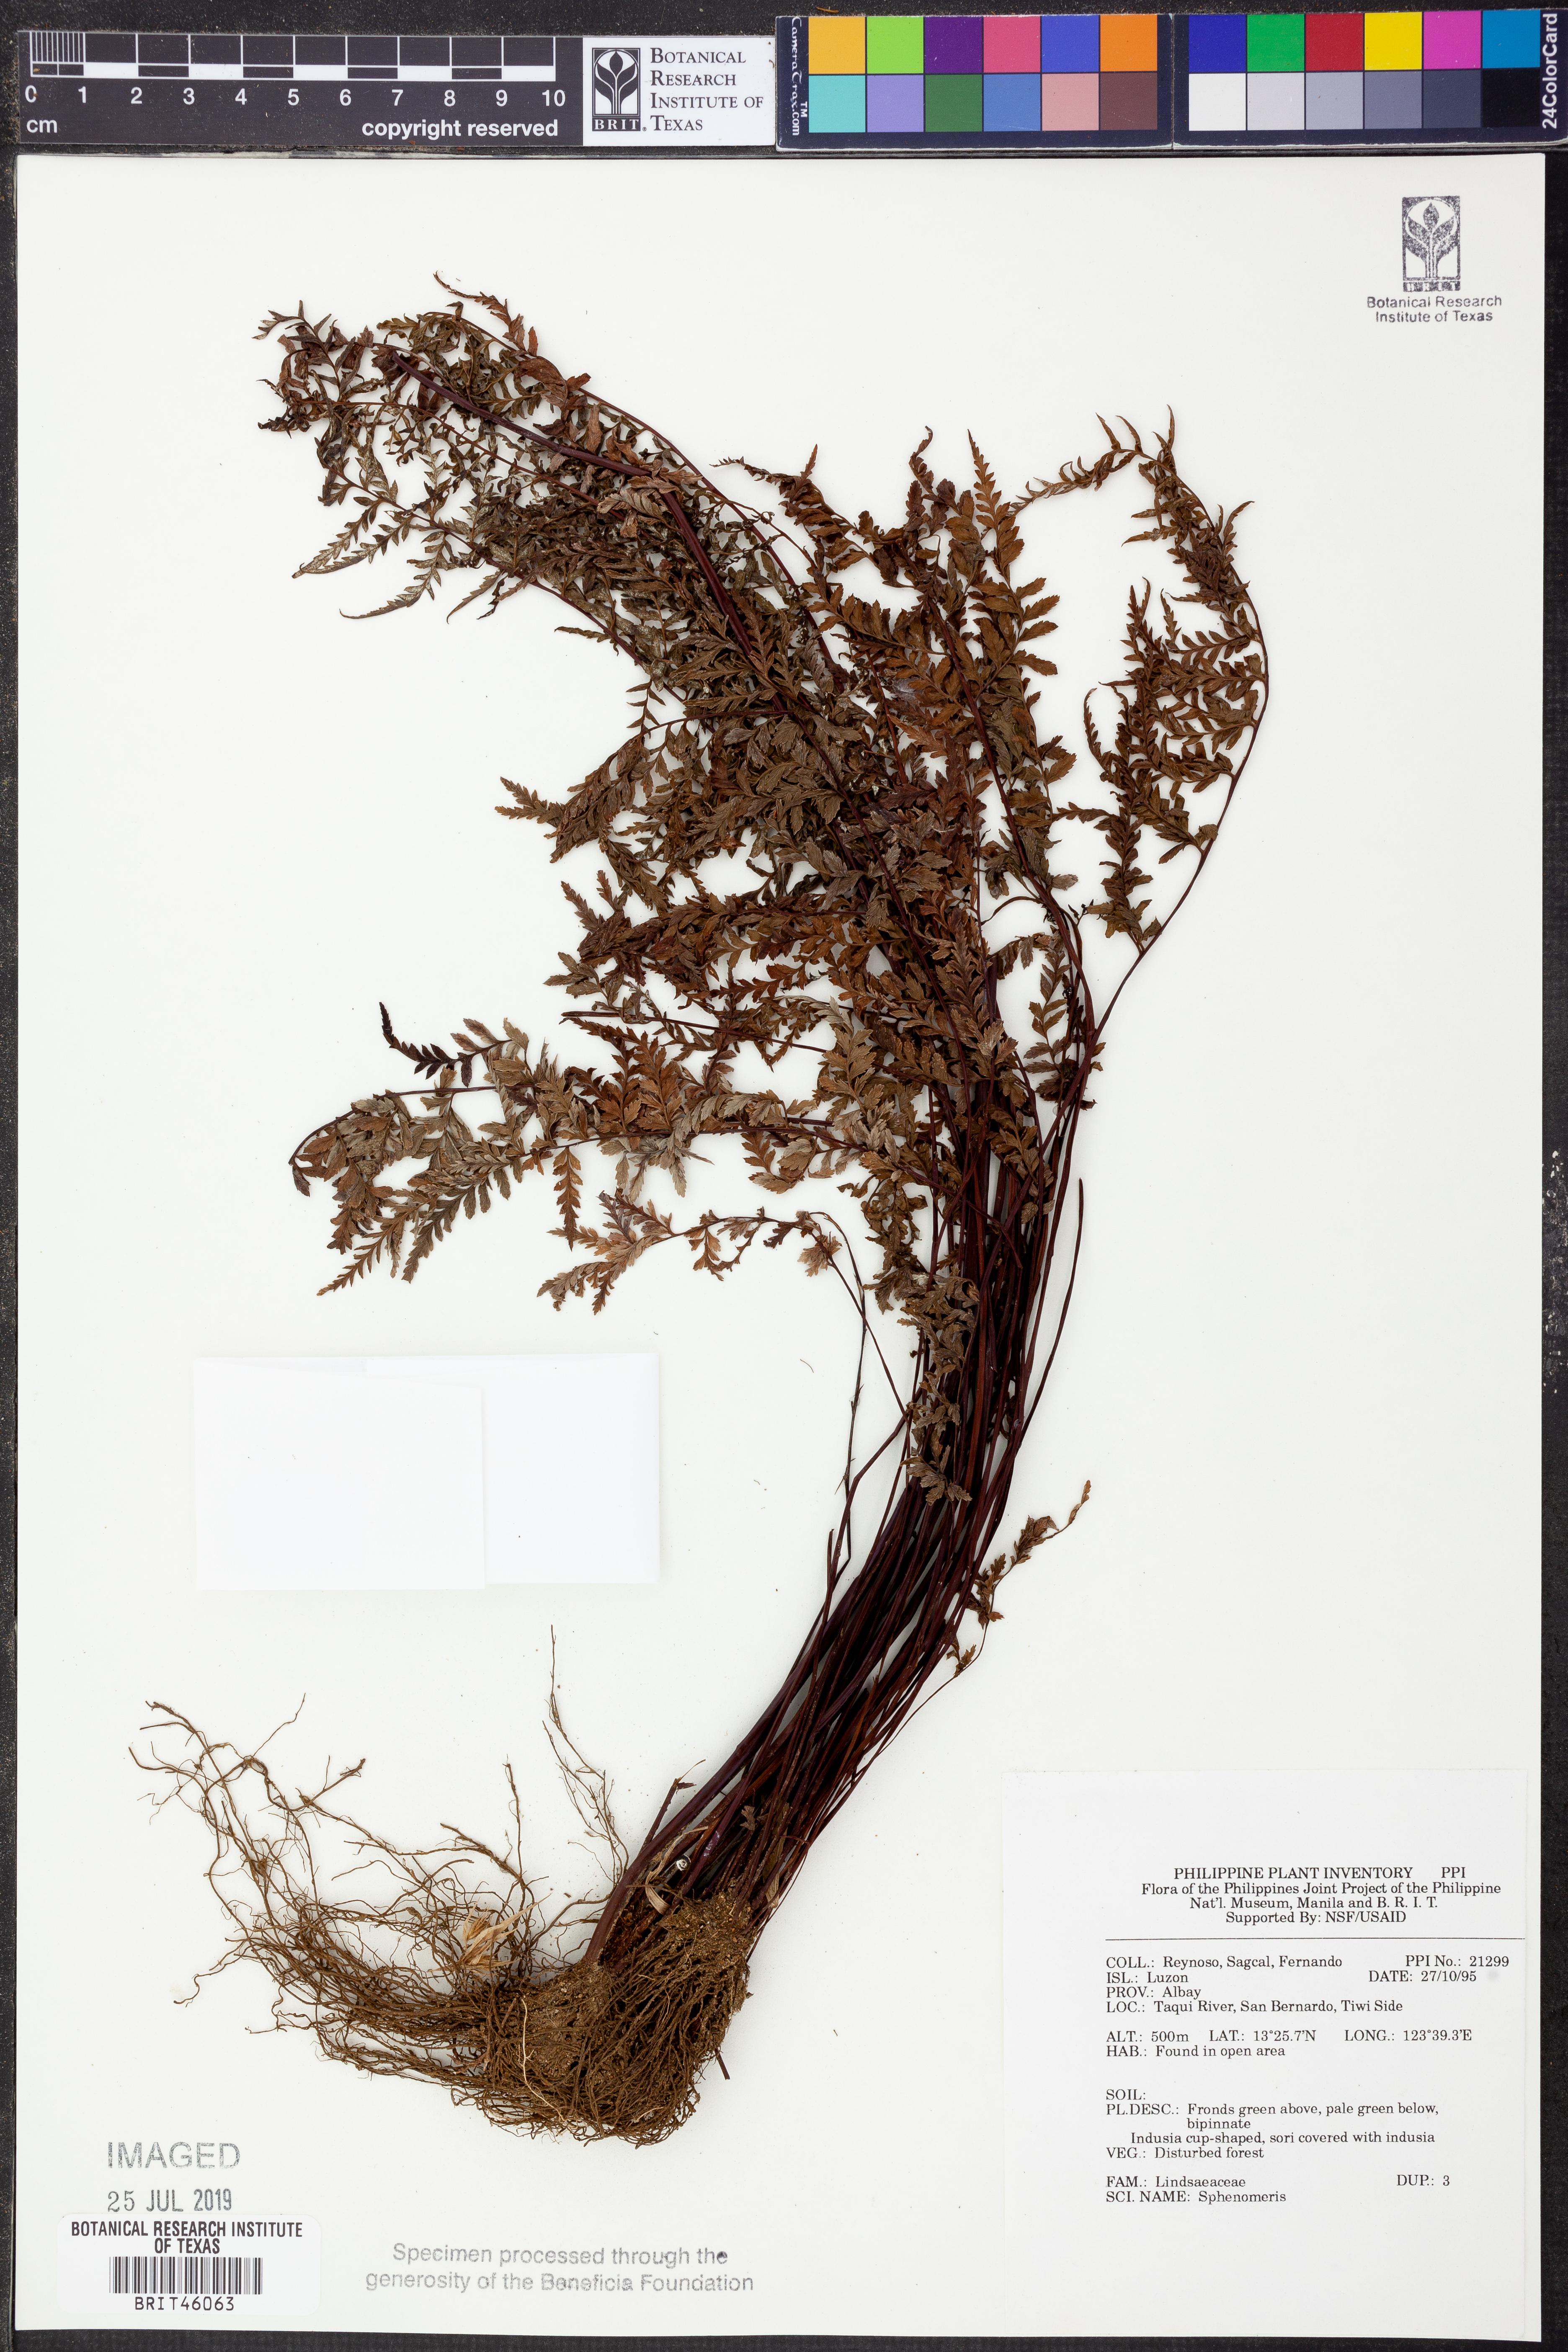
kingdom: Plantae
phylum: Tracheophyta
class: Polypodiopsida
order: Polypodiales
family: Lindsaeaceae
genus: Sphenomeris
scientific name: Sphenomeris
